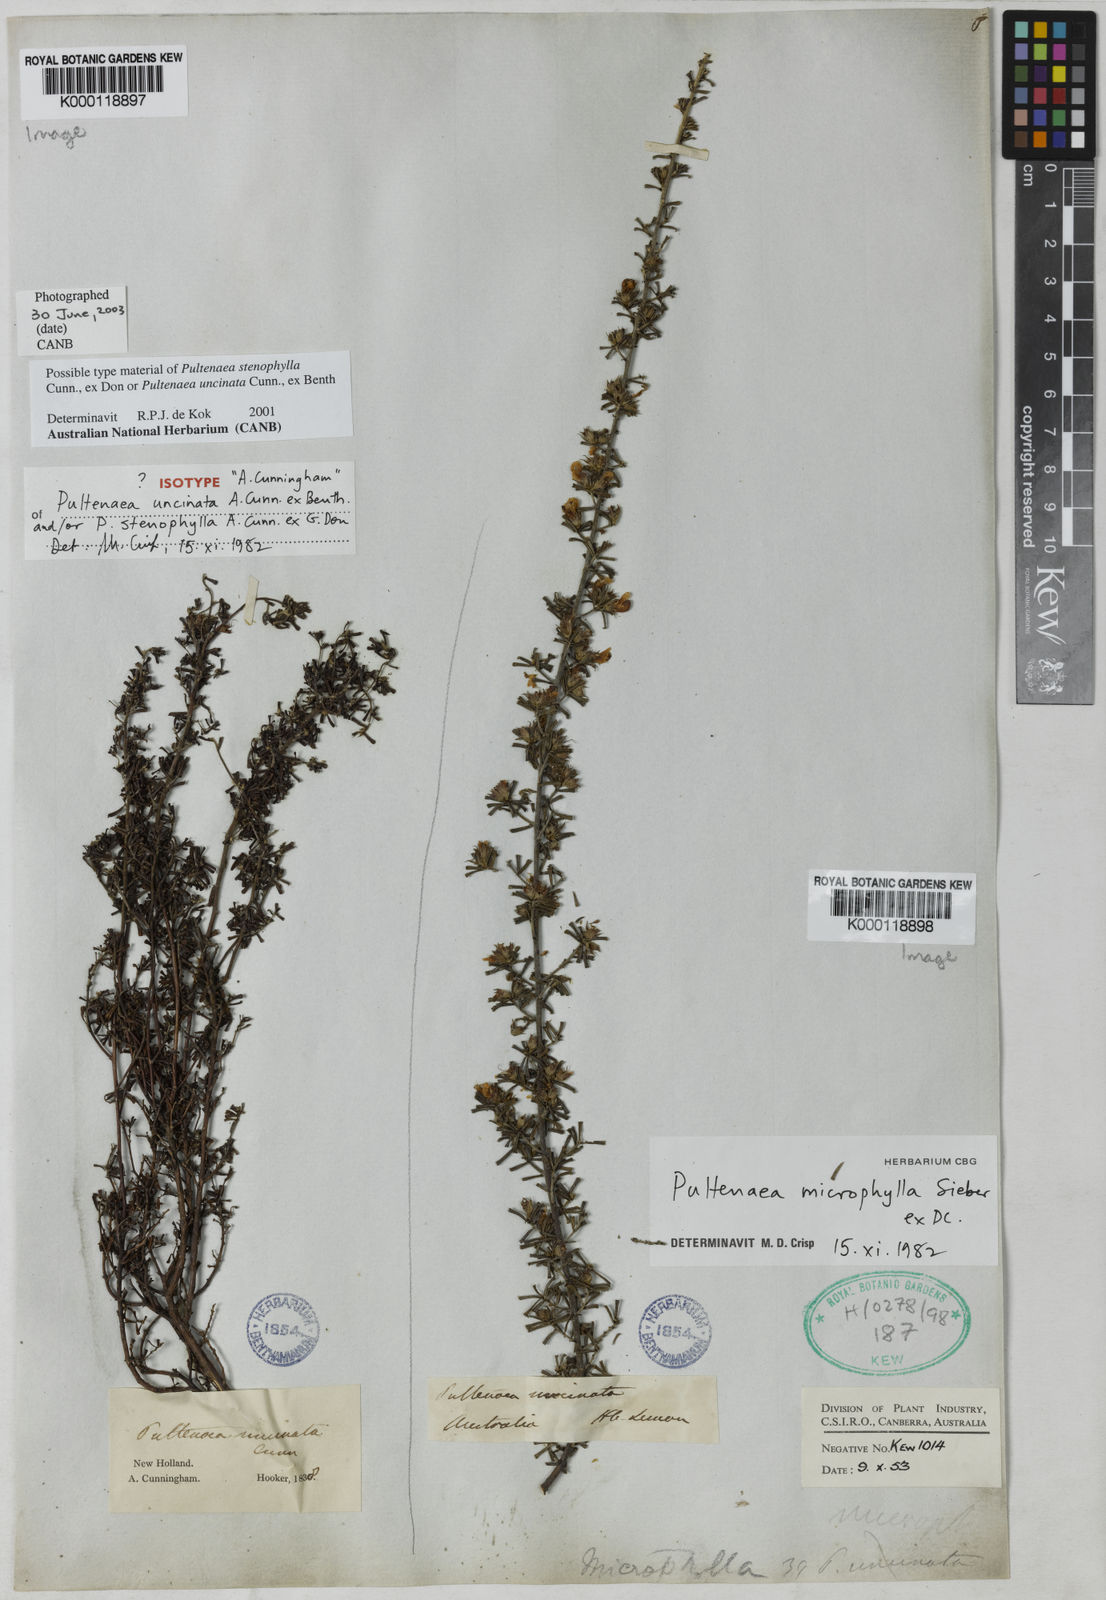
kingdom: Plantae
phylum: Tracheophyta
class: Magnoliopsida
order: Fabales
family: Fabaceae
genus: Pultenaea
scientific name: Pultenaea microphylla
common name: Spreading bush-pea
